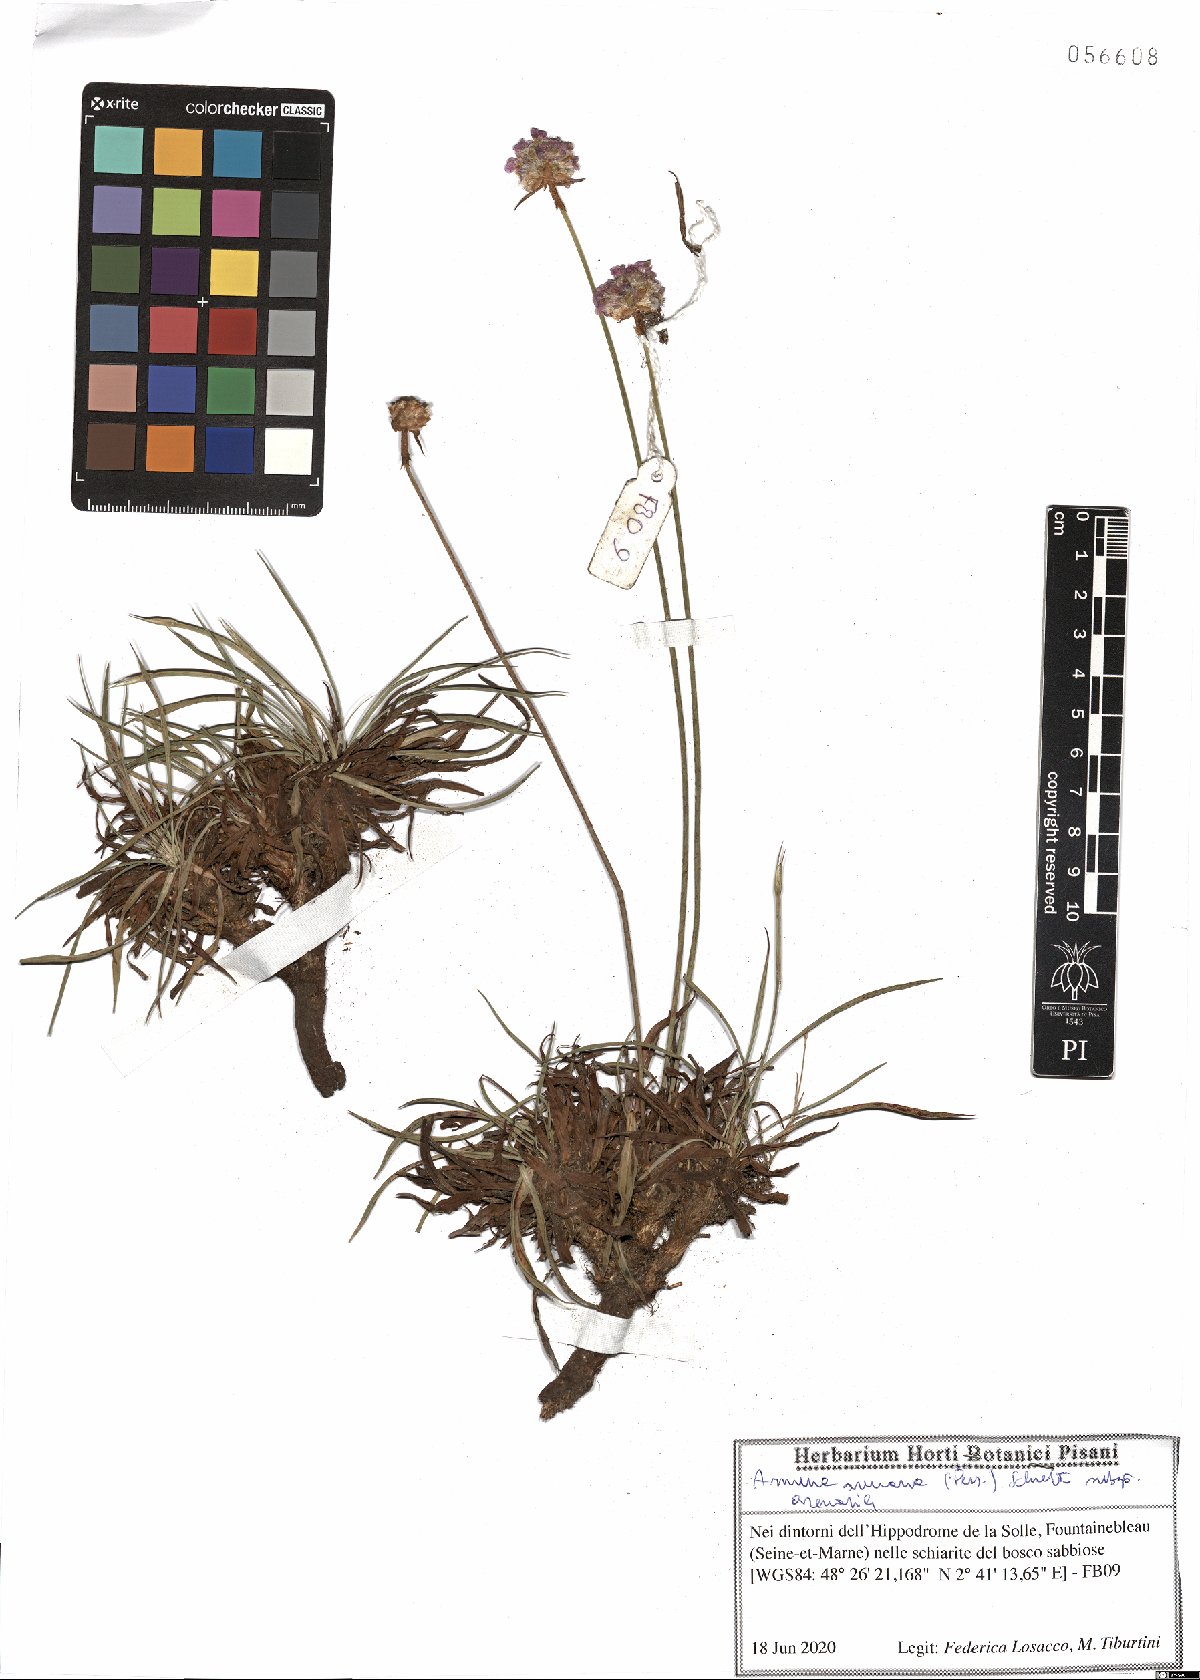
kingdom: Plantae
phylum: Tracheophyta
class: Magnoliopsida
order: Caryophyllales
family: Plumbaginaceae
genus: Armeria
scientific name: Armeria arenaria
